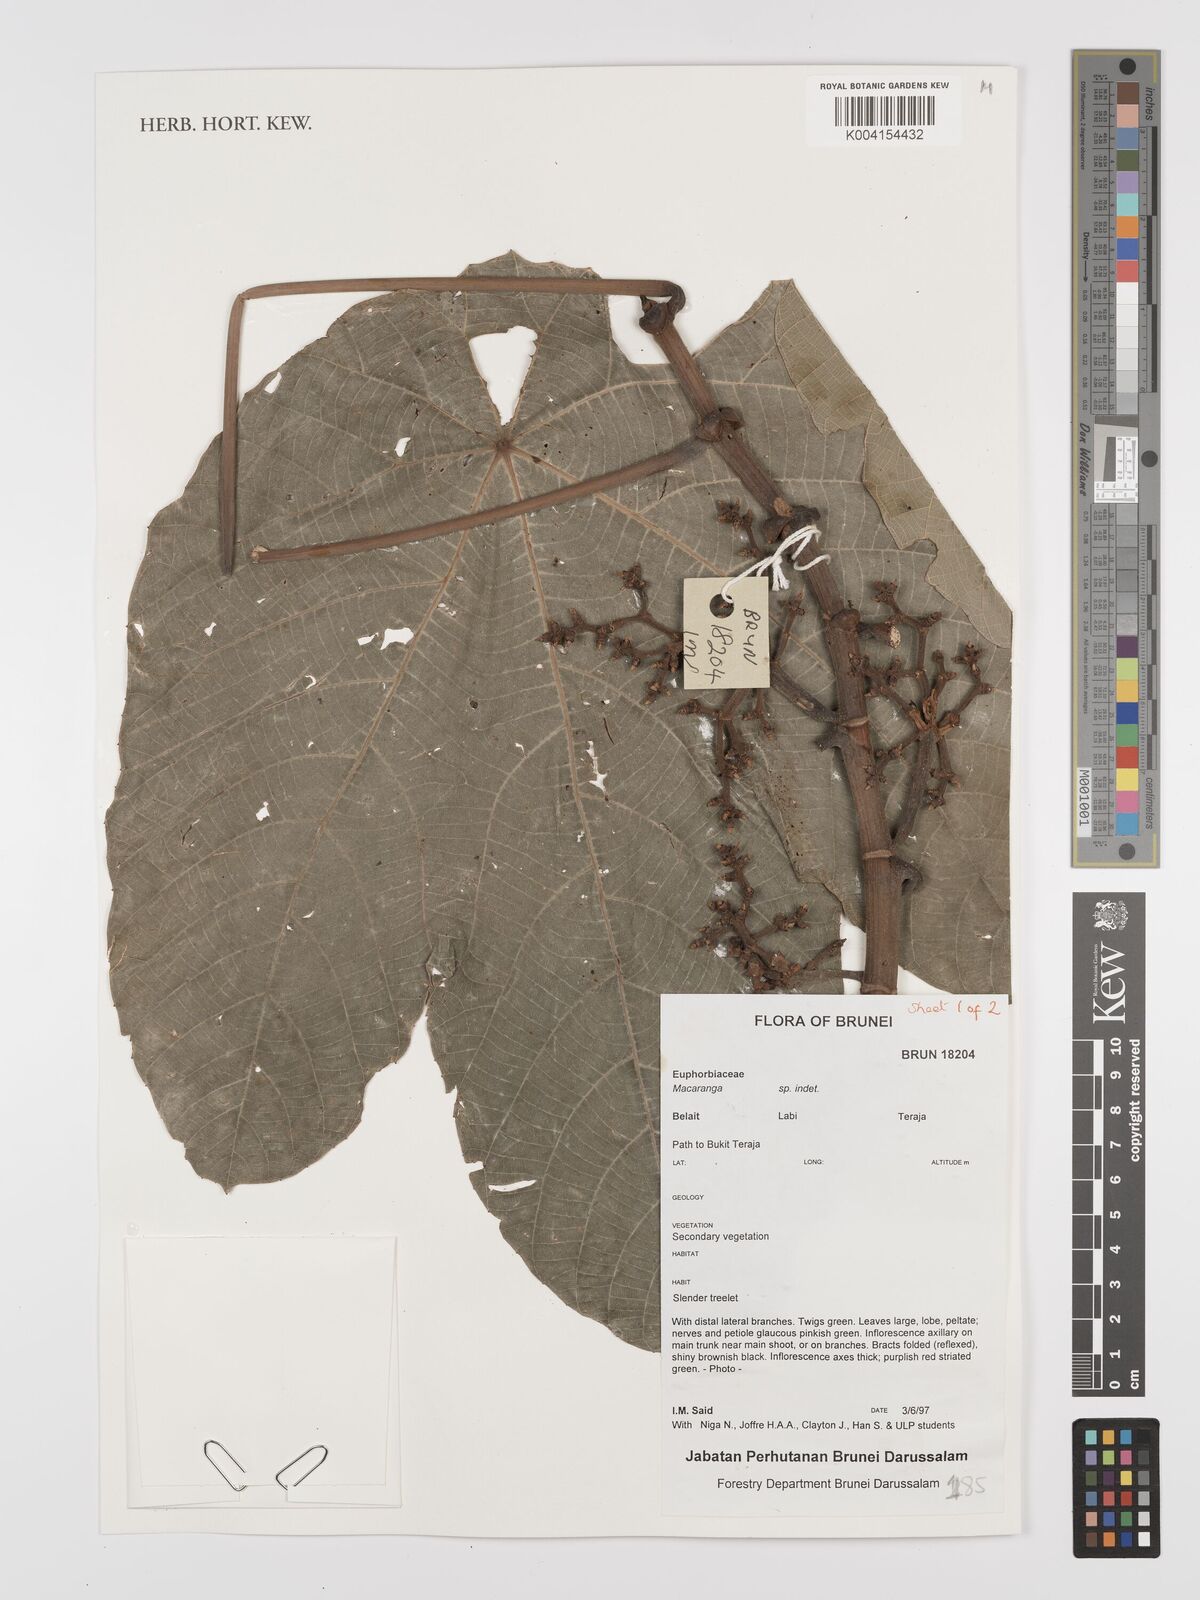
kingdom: Plantae
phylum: Tracheophyta
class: Magnoliopsida
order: Malpighiales
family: Euphorbiaceae
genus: Macaranga
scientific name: Macaranga
